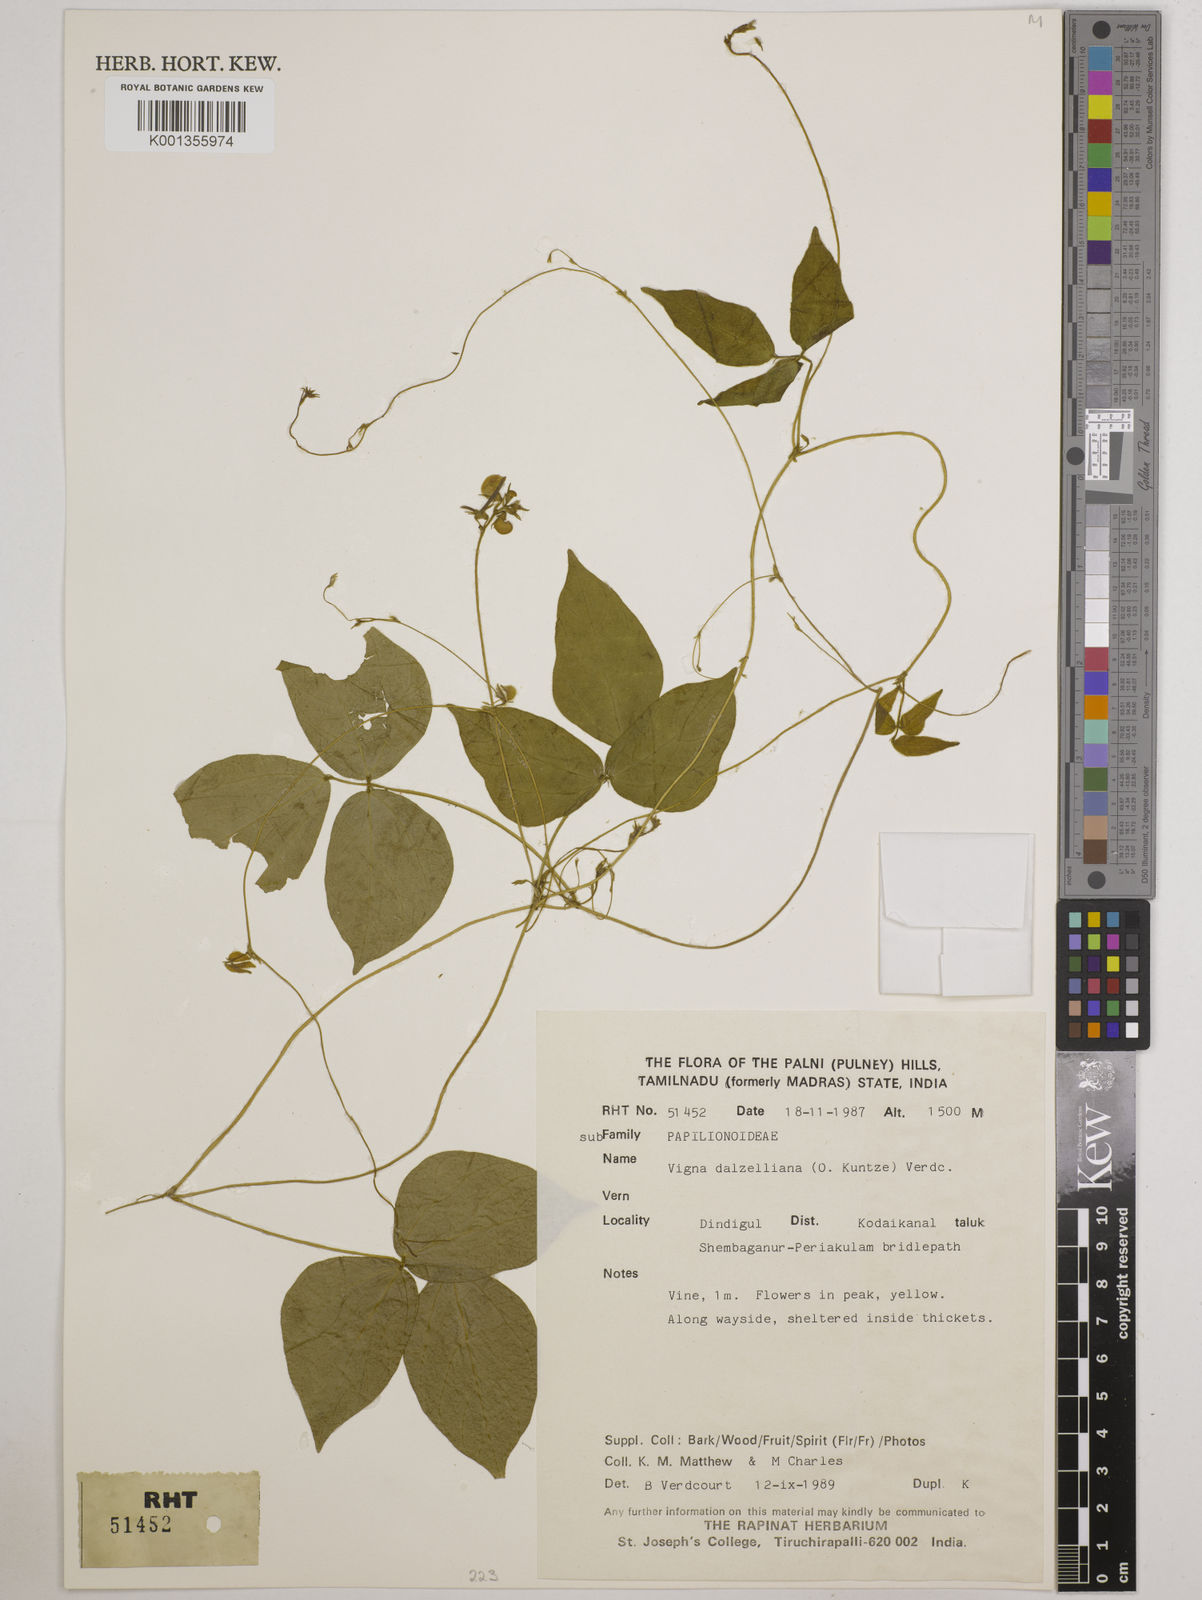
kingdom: Plantae
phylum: Tracheophyta
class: Magnoliopsida
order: Fabales
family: Fabaceae
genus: Vigna
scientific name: Vigna dalzelliana
